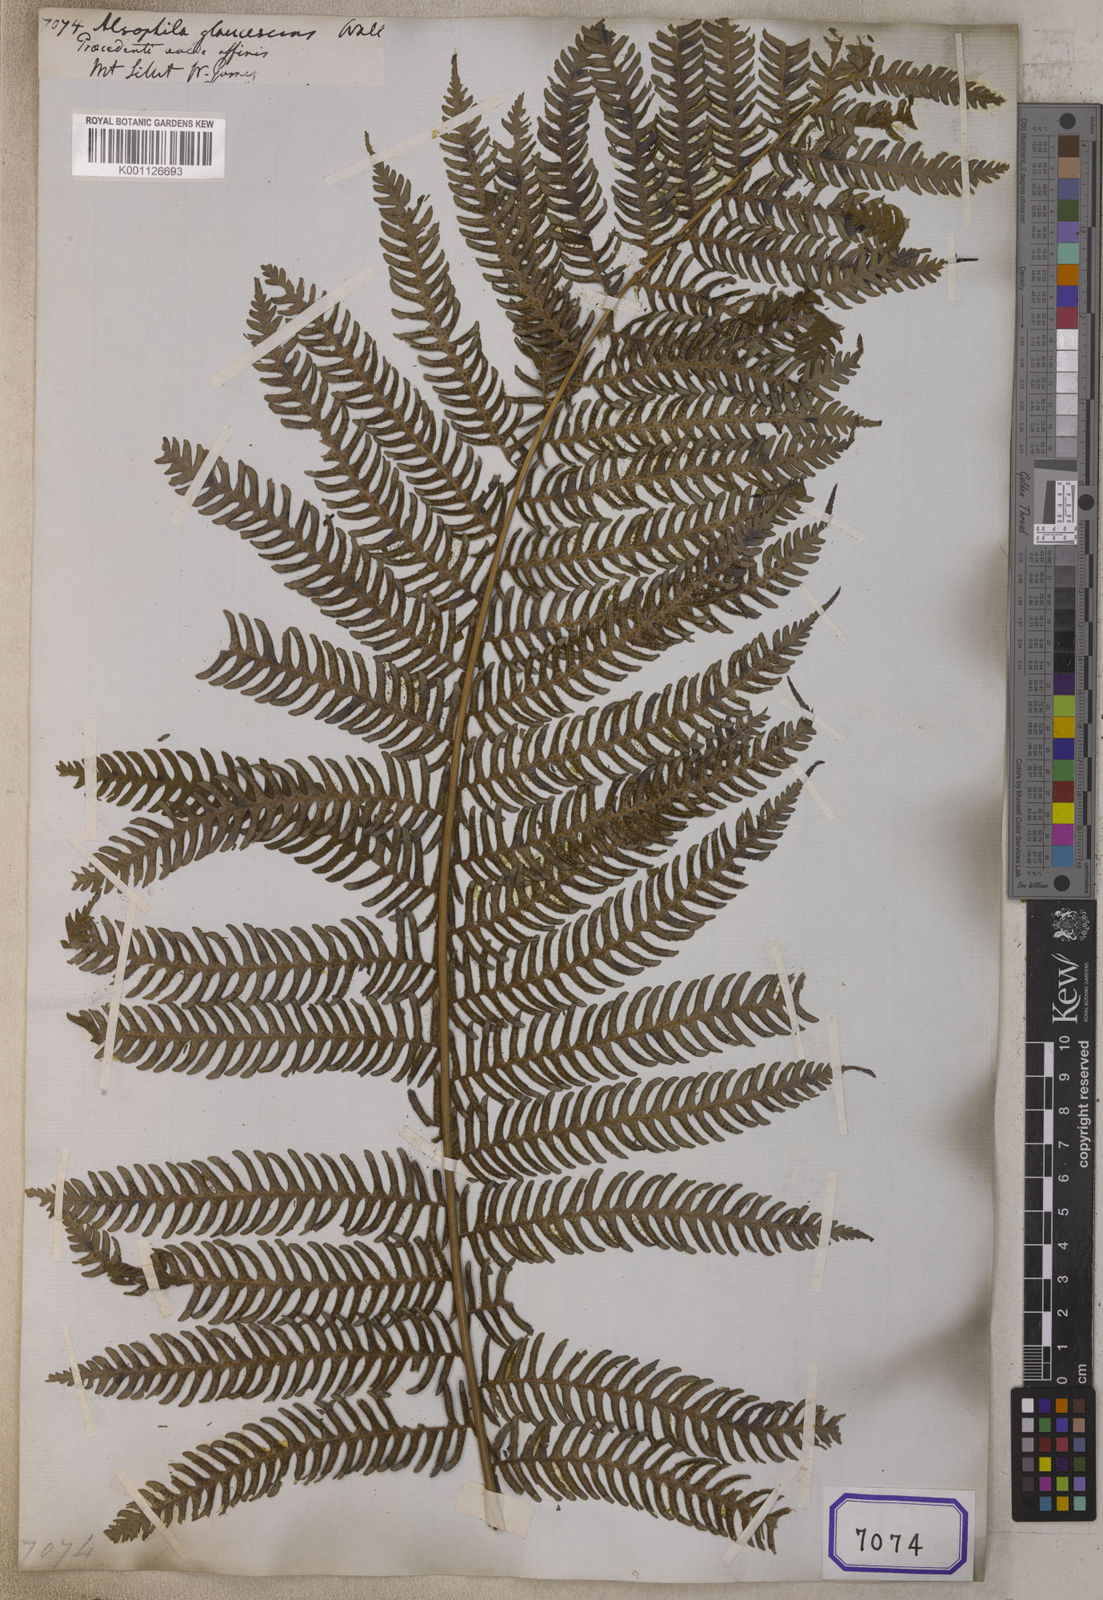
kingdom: Plantae
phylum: Tracheophyta
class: Polypodiopsida
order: Cyatheales
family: Cyatheaceae
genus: Sphaeropteris
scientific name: Sphaeropteris glauca
